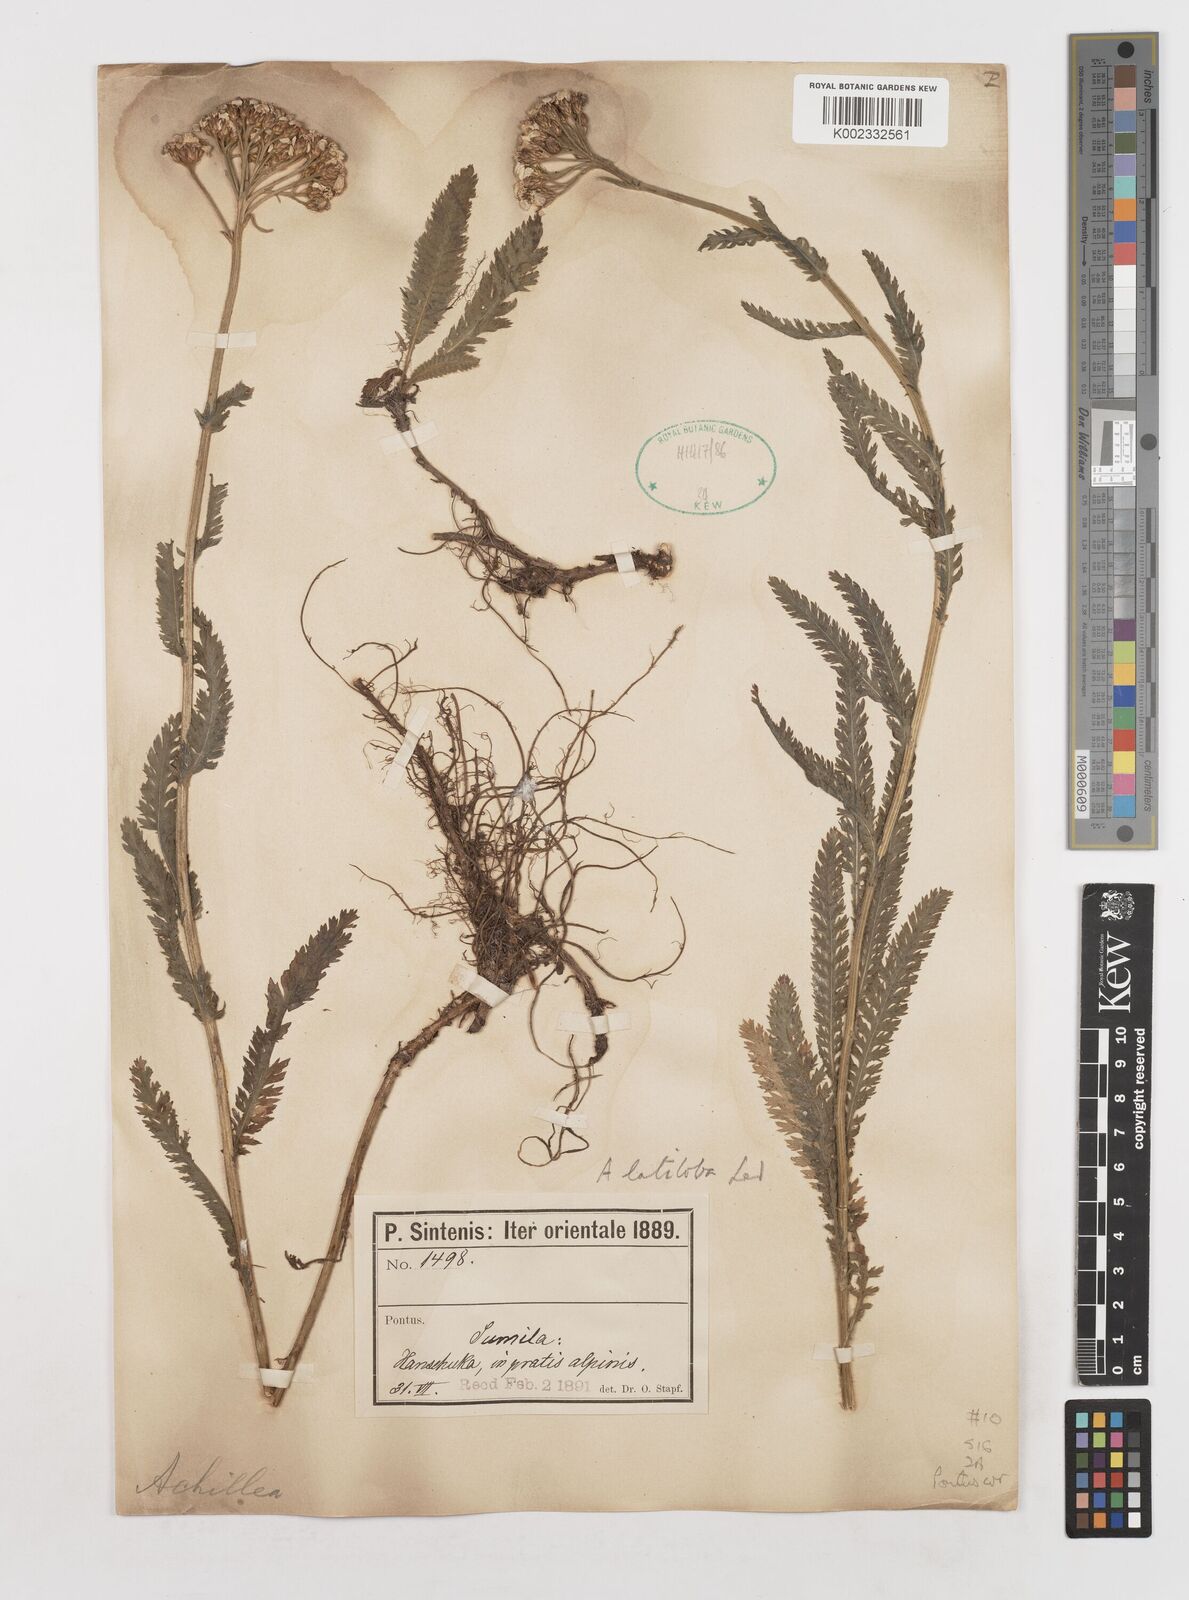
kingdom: Plantae
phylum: Tracheophyta
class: Magnoliopsida
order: Asterales
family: Asteraceae
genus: Achillea
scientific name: Achillea latiloba
